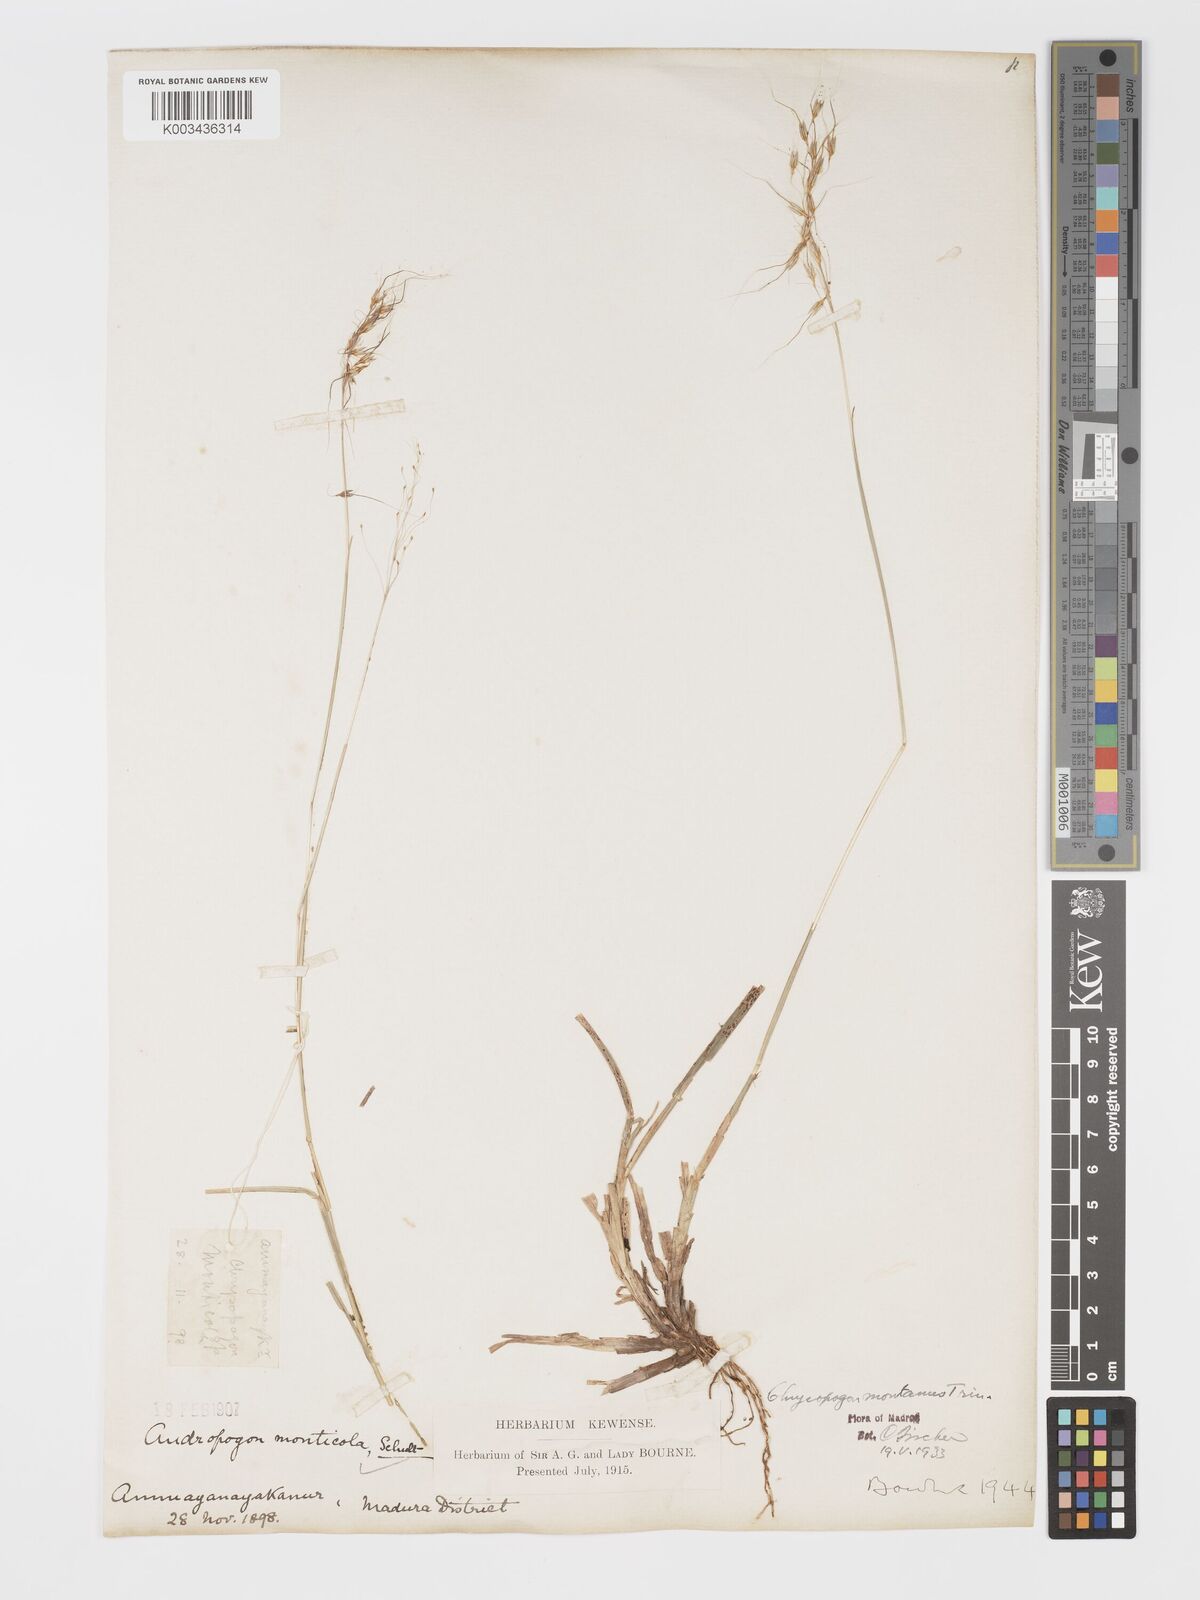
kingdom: Plantae
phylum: Tracheophyta
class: Liliopsida
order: Poales
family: Poaceae
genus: Chrysopogon
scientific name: Chrysopogon fulvus
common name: Red false beardgrass
